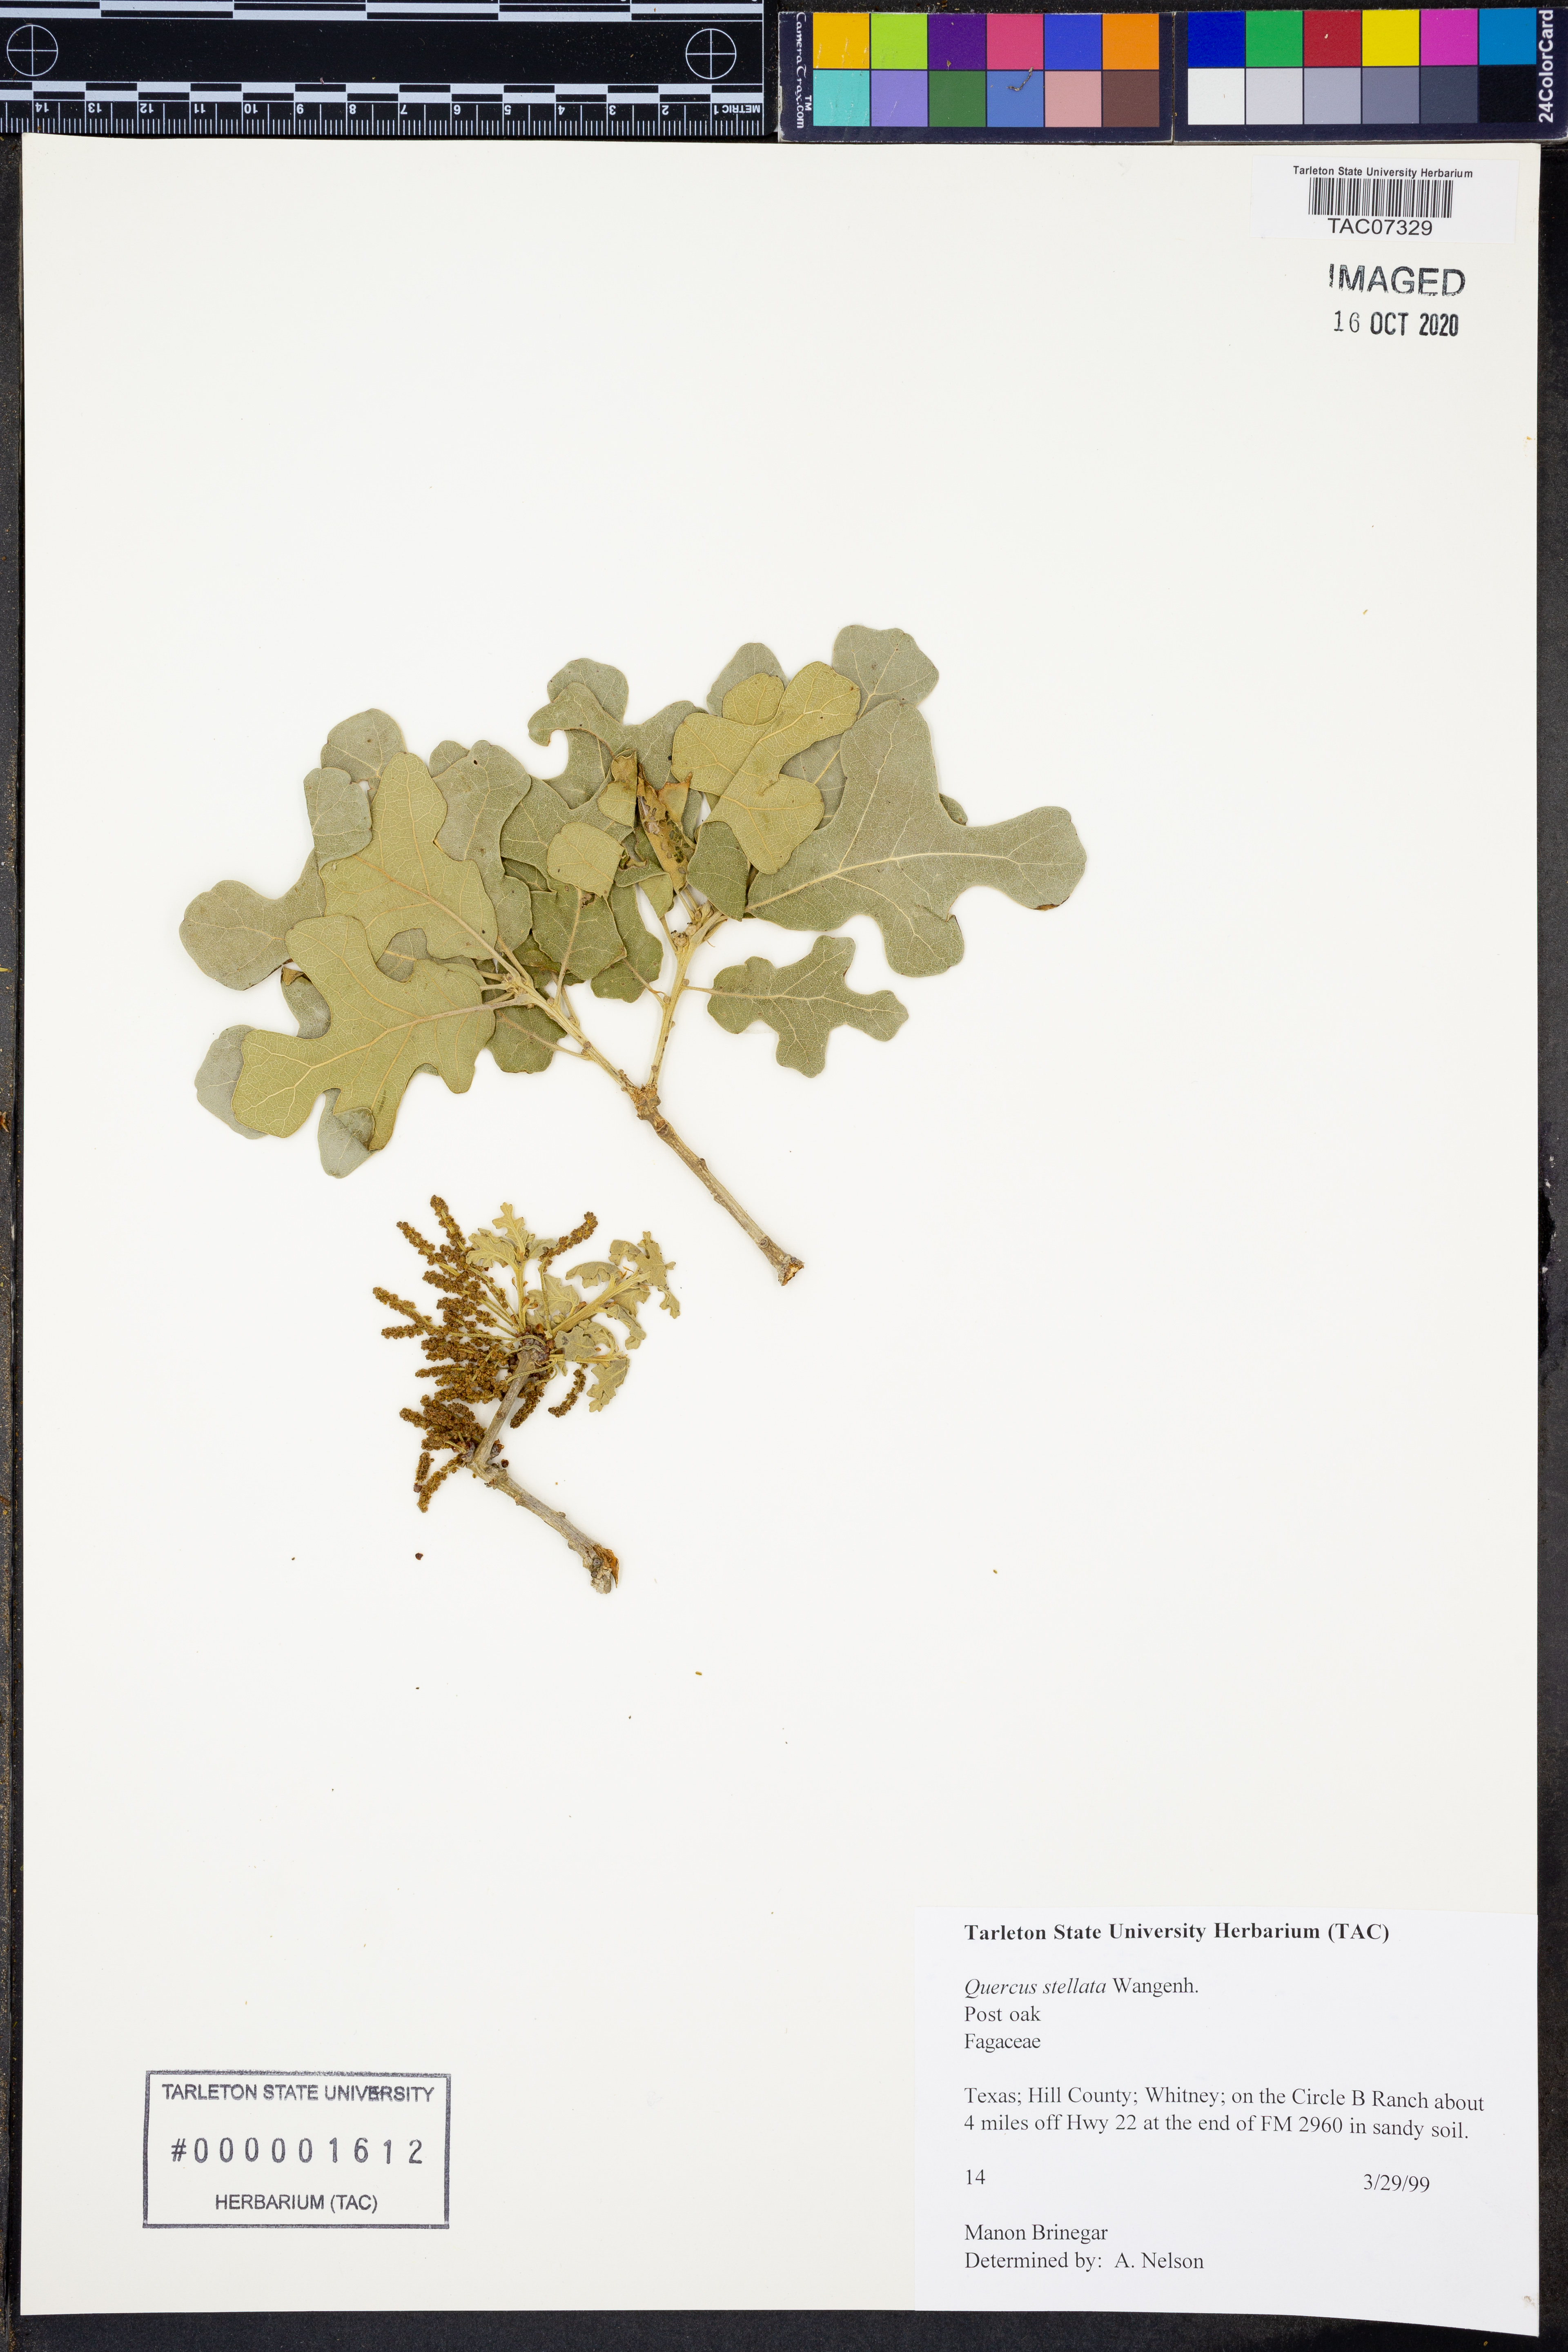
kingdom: Plantae
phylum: Tracheophyta
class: Magnoliopsida
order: Fagales
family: Fagaceae
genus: Quercus
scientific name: Quercus stellata
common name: Post oak
